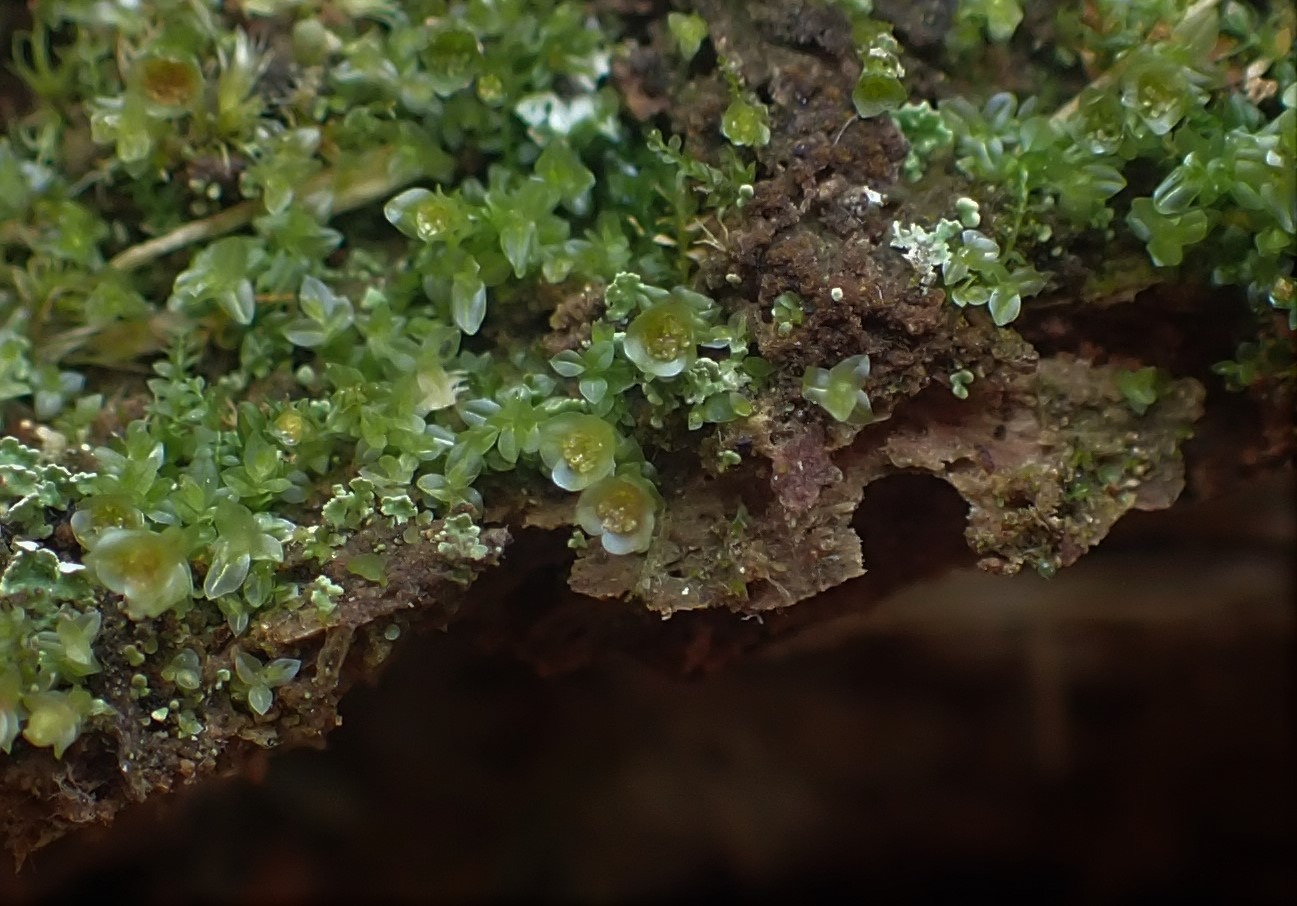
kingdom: Plantae
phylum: Bryophyta
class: Polytrichopsida
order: Tetraphidales
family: Tetraphidaceae
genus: Tetraphis
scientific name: Tetraphis pellucida
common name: Almindelig firtand
